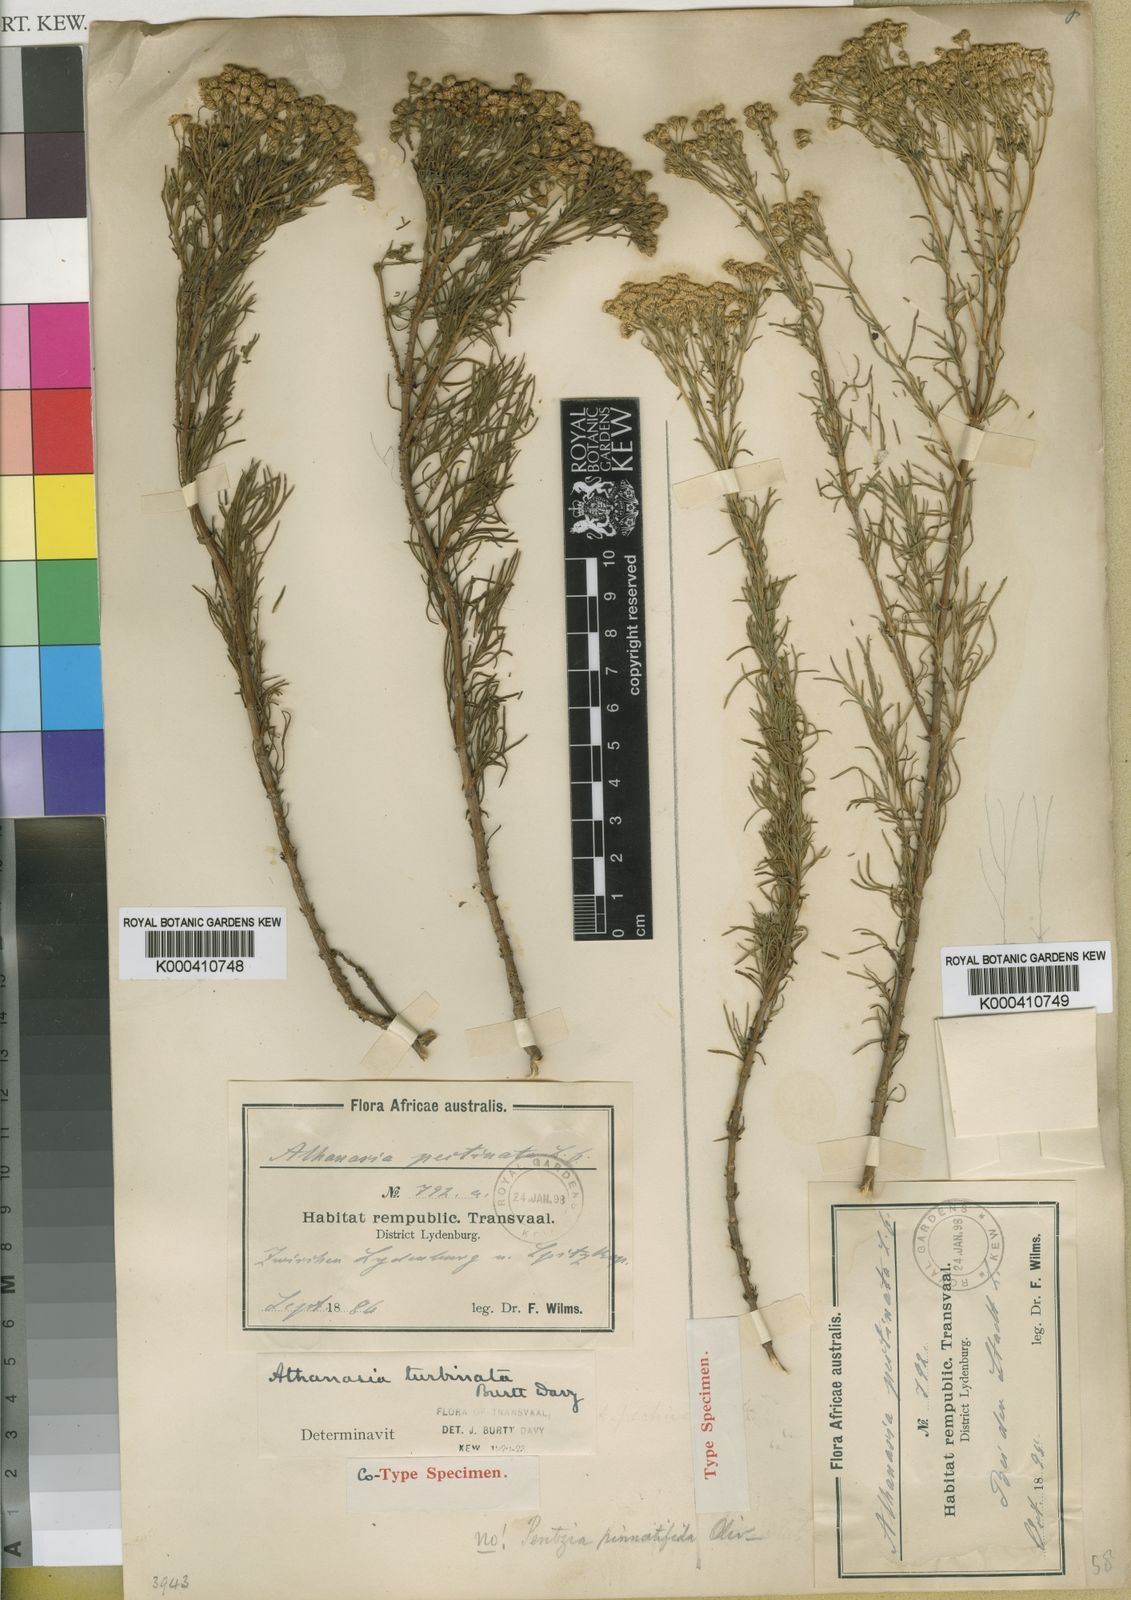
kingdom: Plantae
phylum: Tracheophyta
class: Magnoliopsida
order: Asterales
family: Asteraceae
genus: Gymnopentzia
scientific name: Gymnopentzia bifurcata
